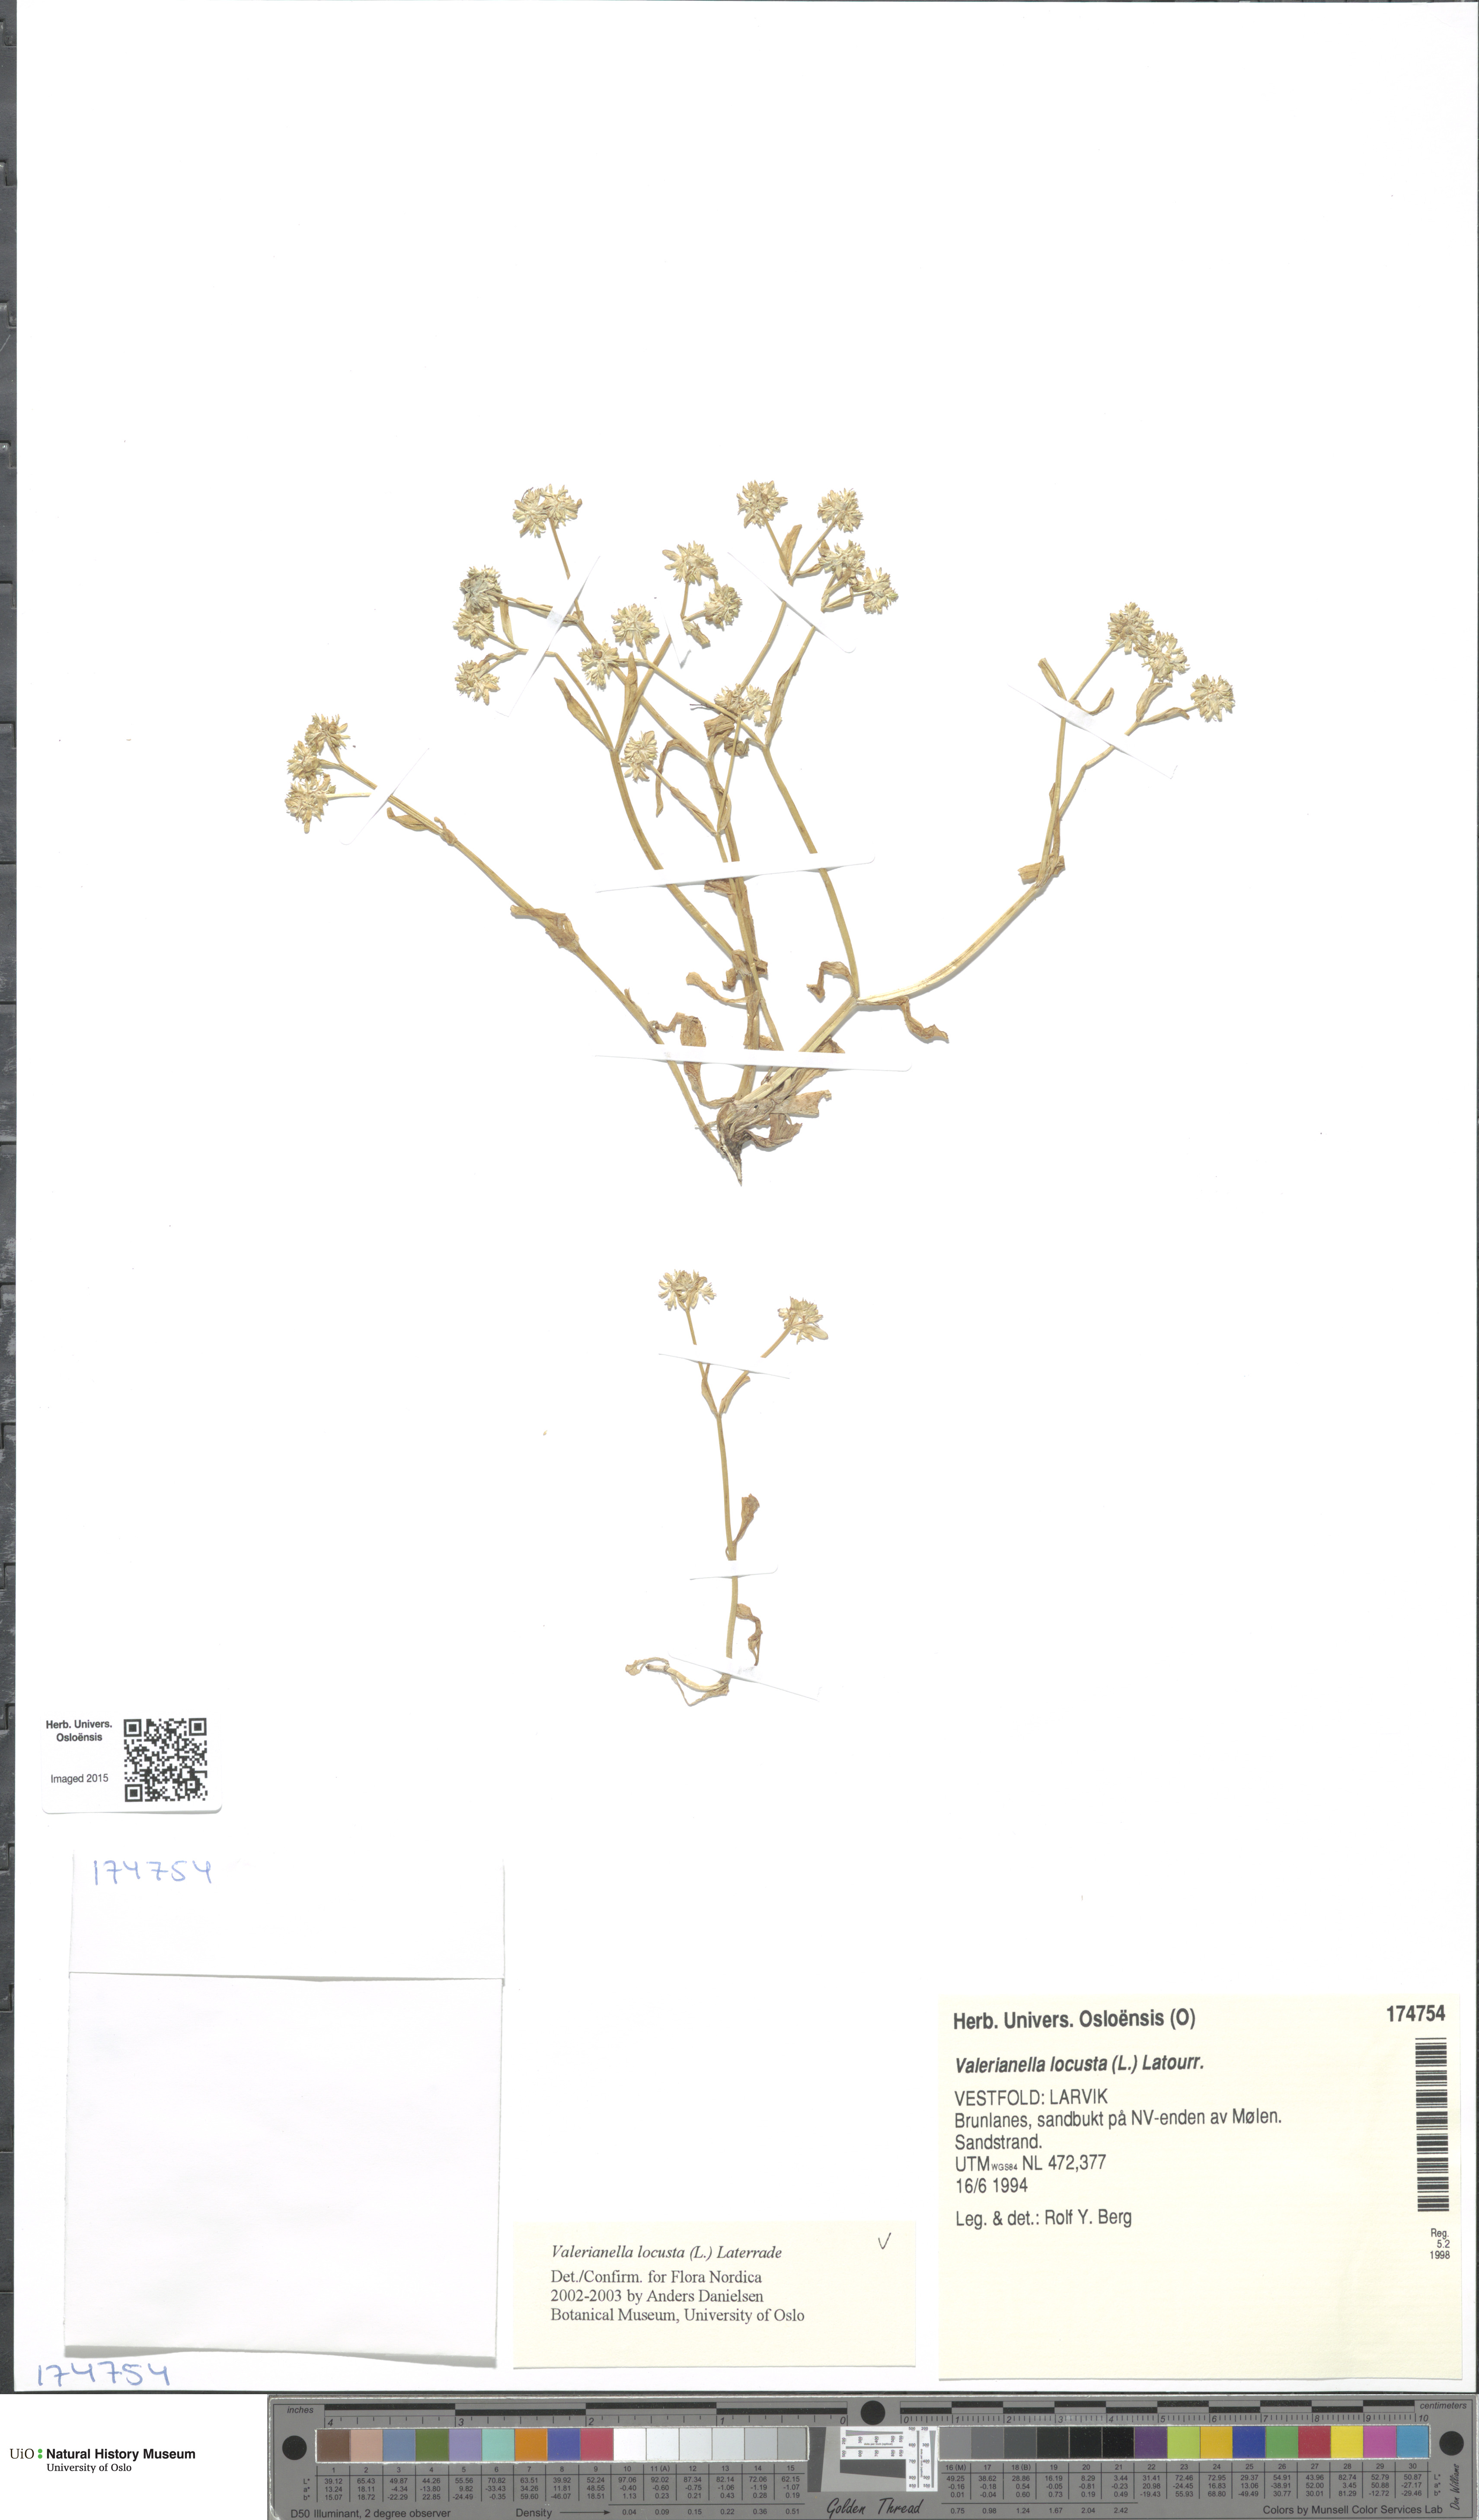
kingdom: Plantae
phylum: Tracheophyta
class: Magnoliopsida
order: Dipsacales
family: Caprifoliaceae
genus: Valerianella
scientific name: Valerianella locusta
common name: Common cornsalad
